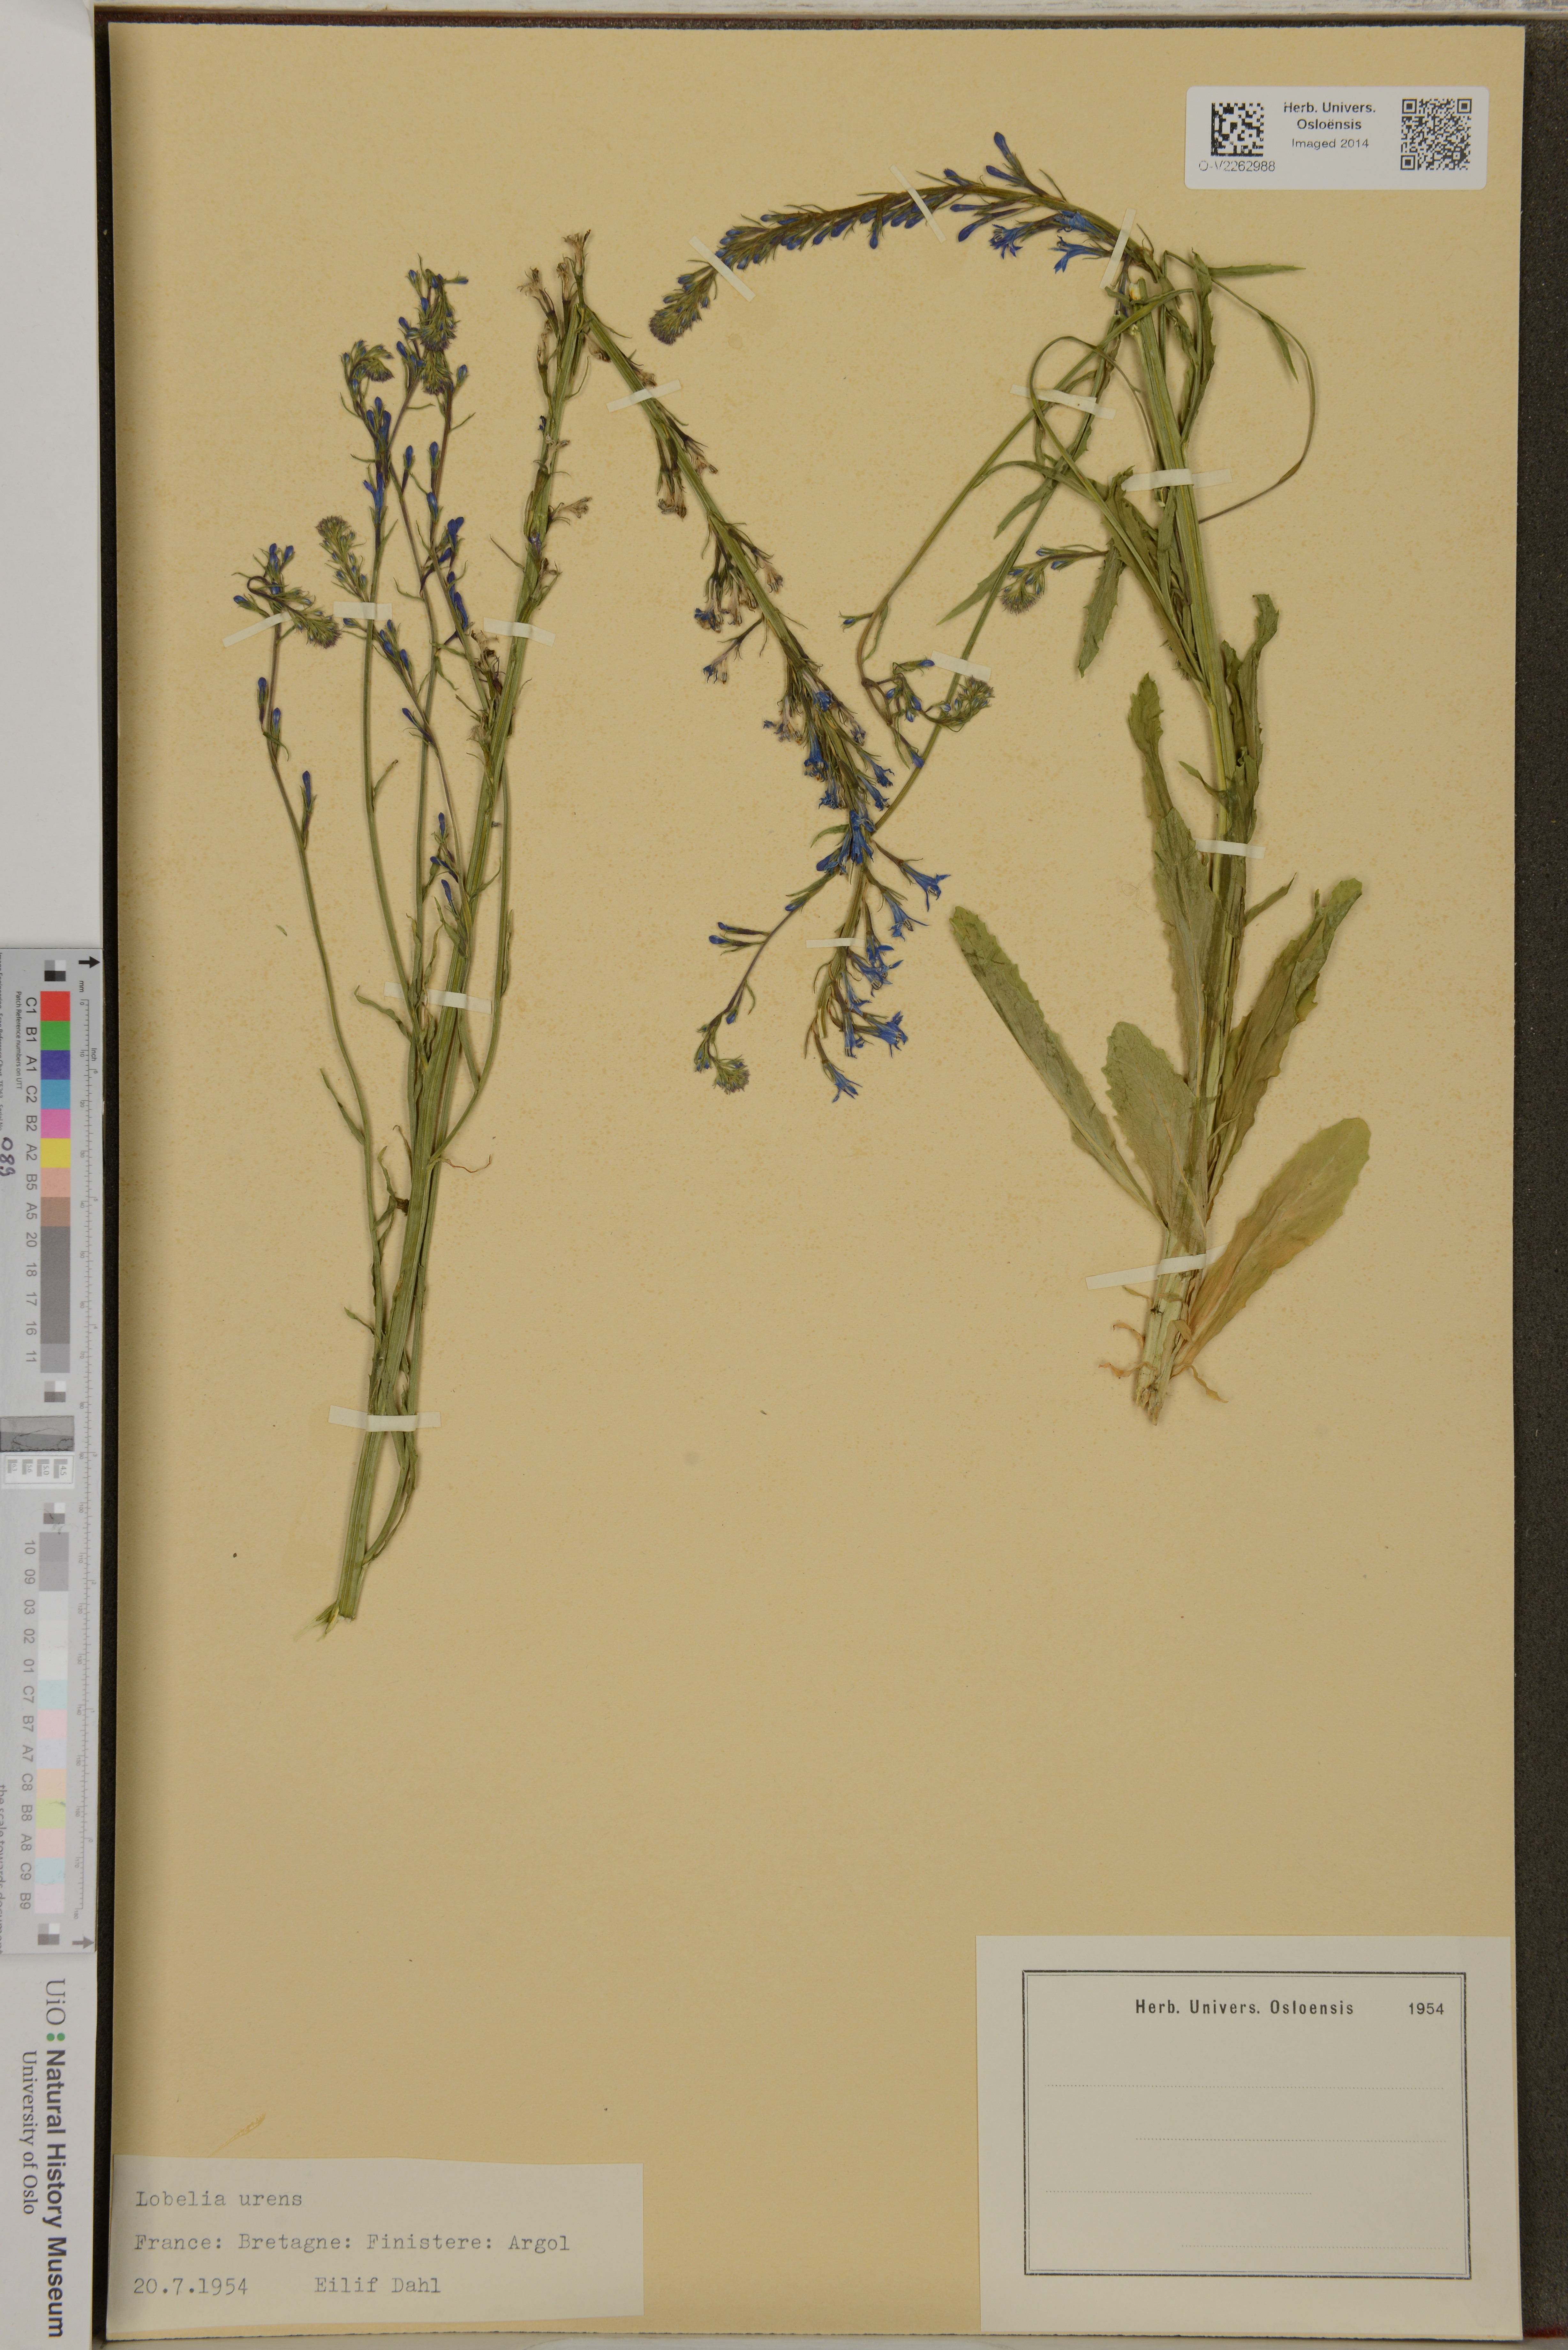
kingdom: Plantae
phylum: Tracheophyta
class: Magnoliopsida
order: Asterales
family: Campanulaceae
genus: Lobelia
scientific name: Lobelia urens
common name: Heath lobelia
